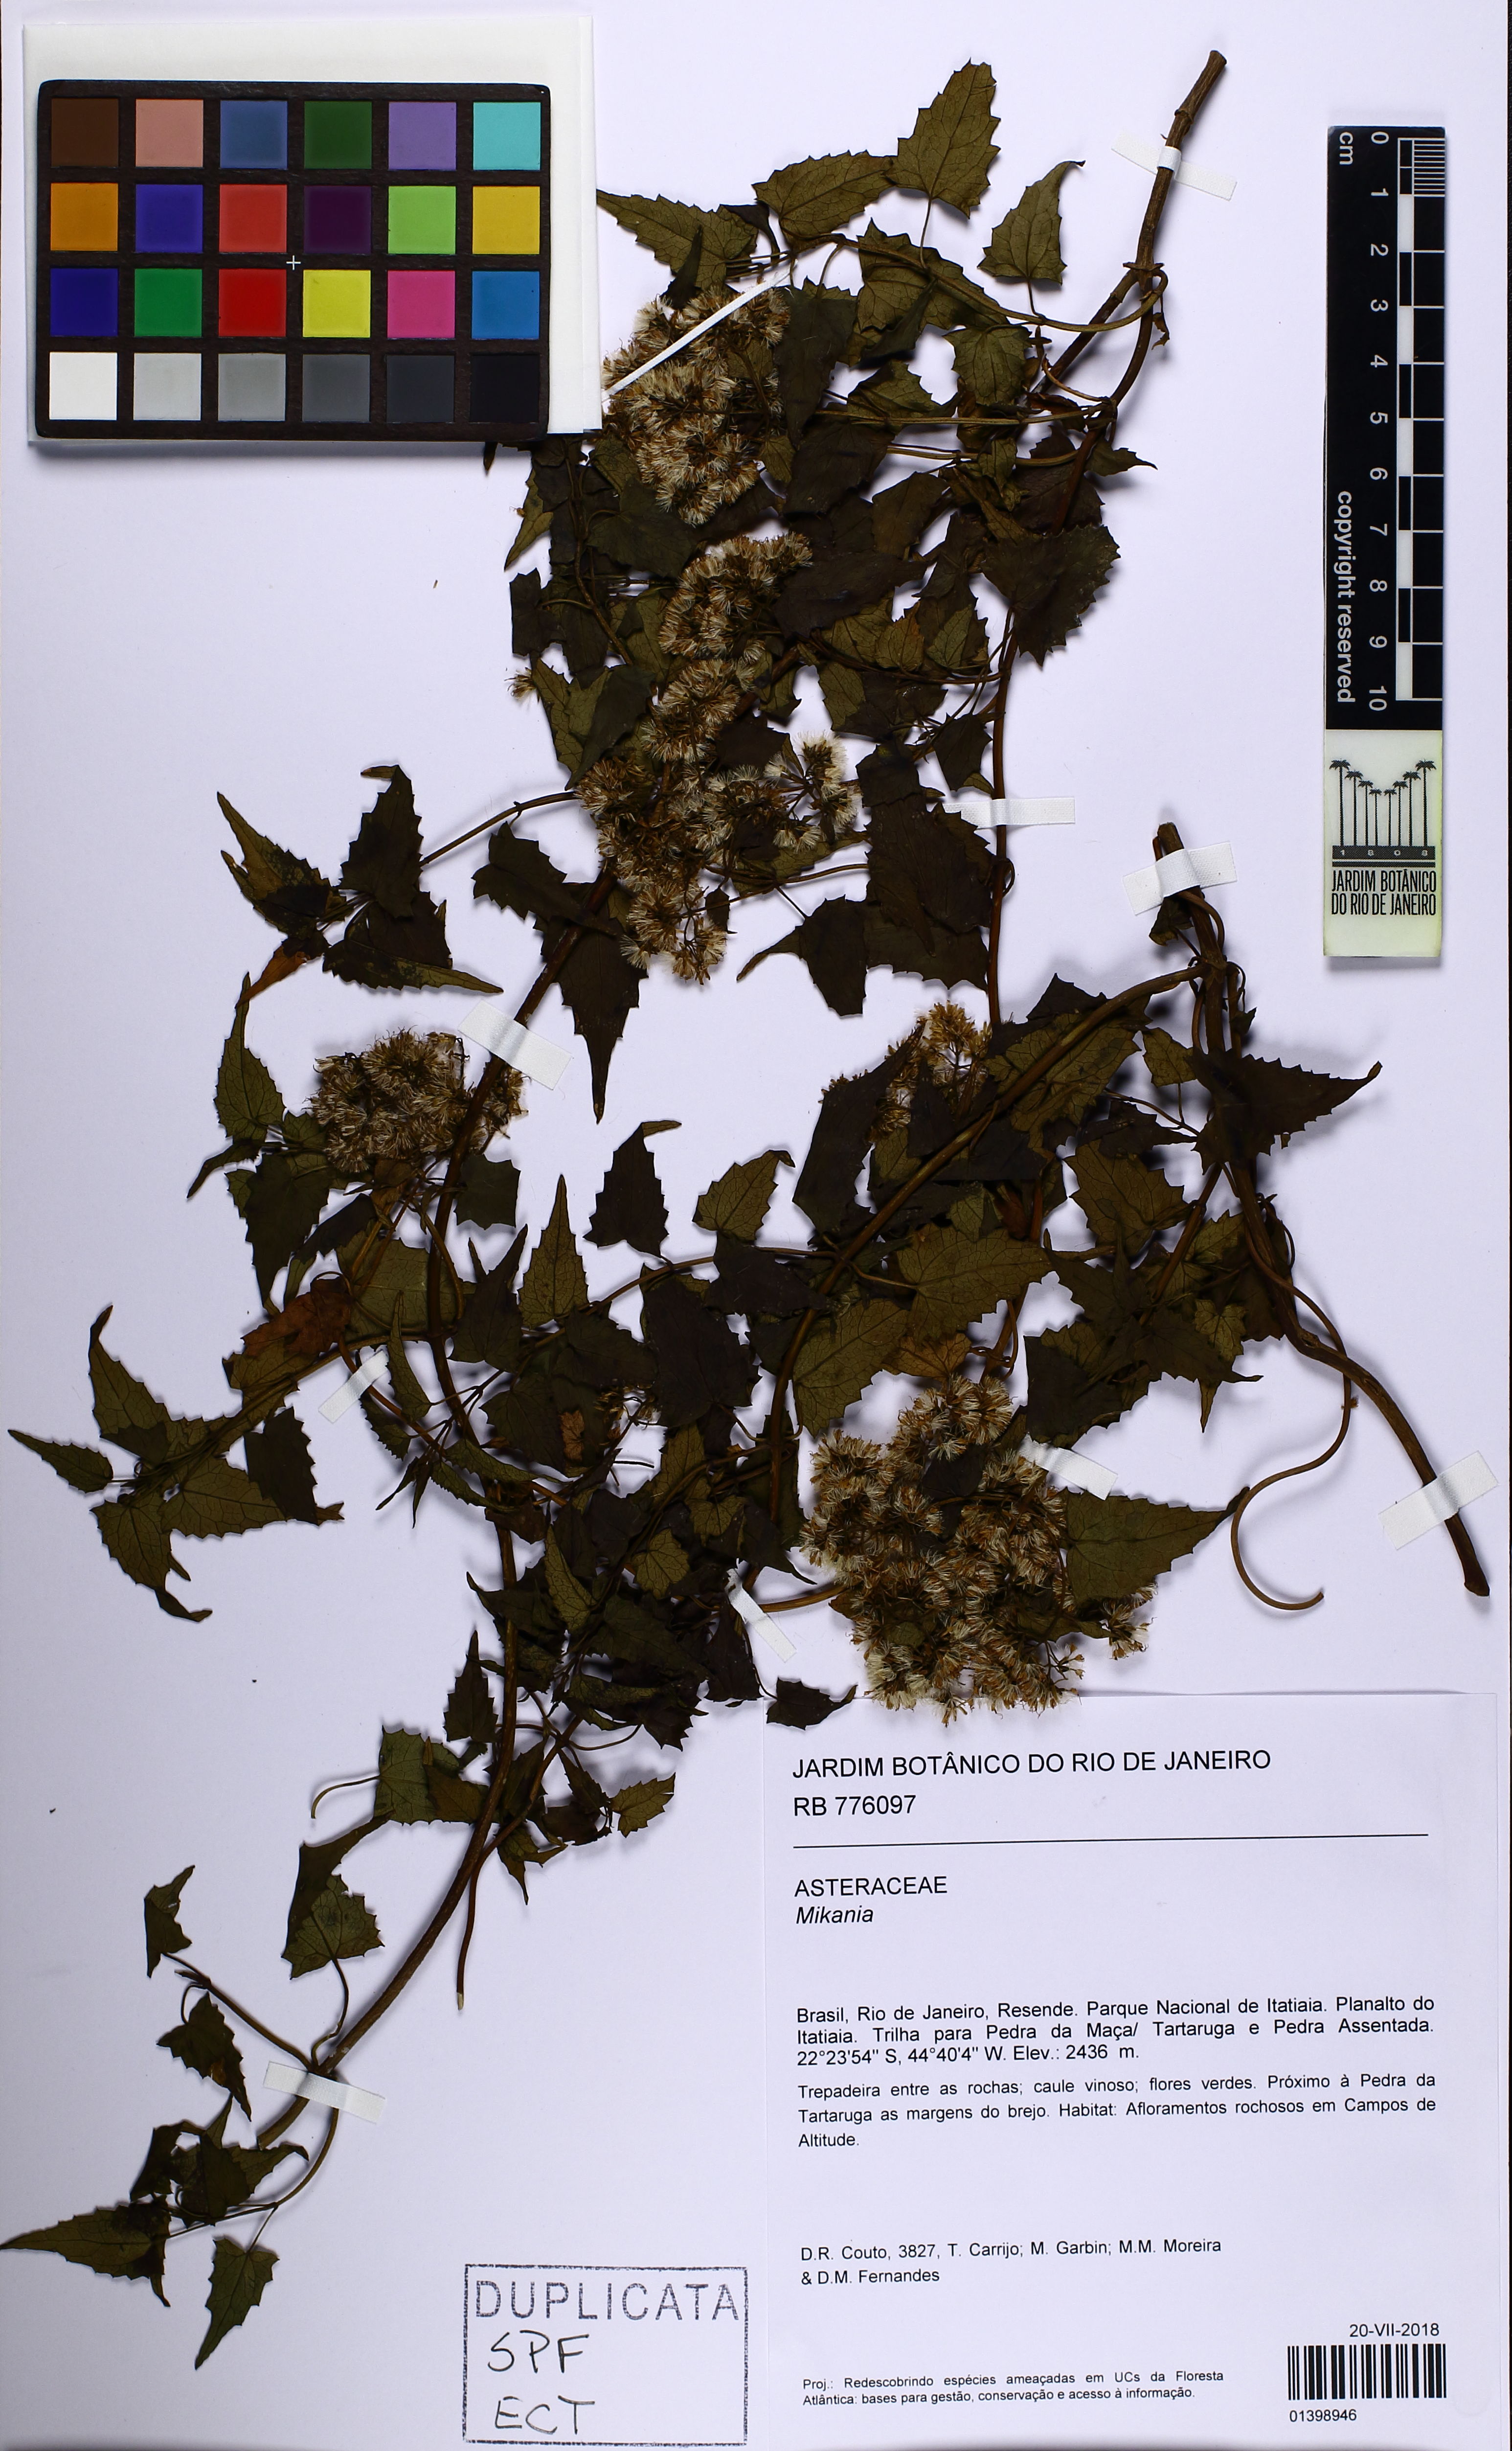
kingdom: Plantae
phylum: Tracheophyta
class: Magnoliopsida
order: Asterales
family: Asteraceae
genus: Mikania
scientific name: Mikania
